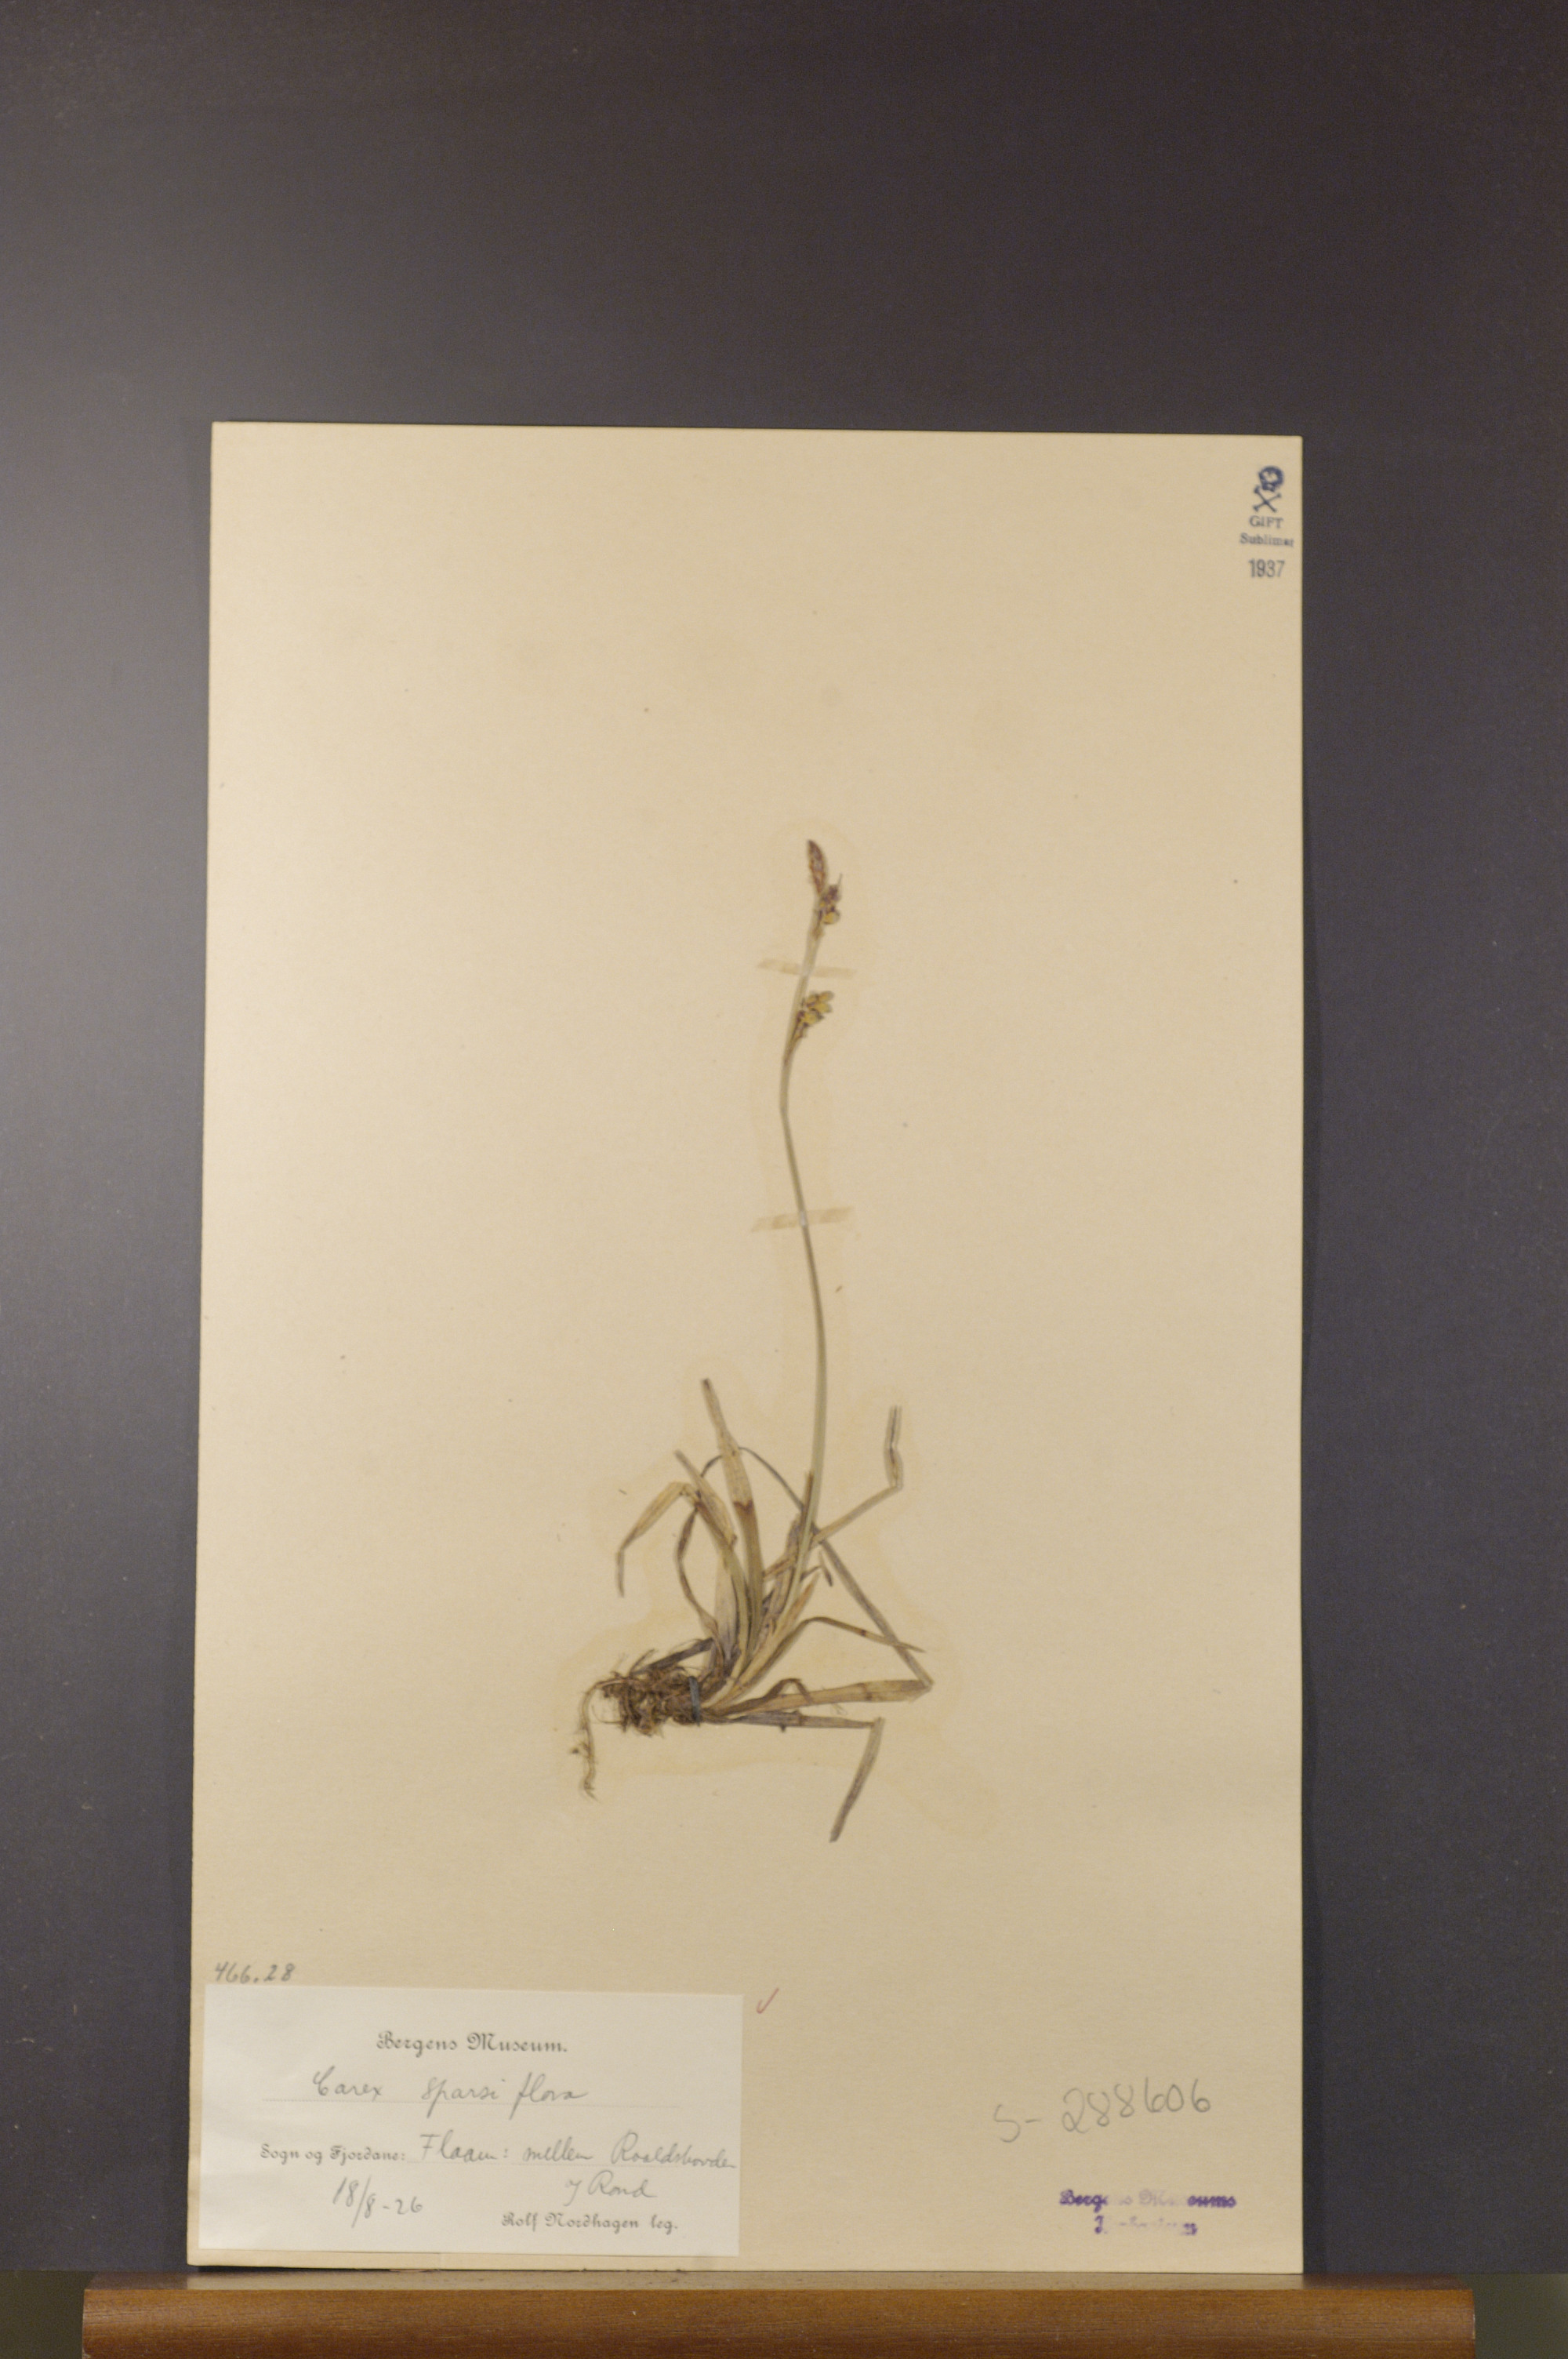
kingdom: Plantae
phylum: Tracheophyta
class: Liliopsida
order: Poales
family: Cyperaceae
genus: Carex
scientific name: Carex vaginata
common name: Sheathed sedge
